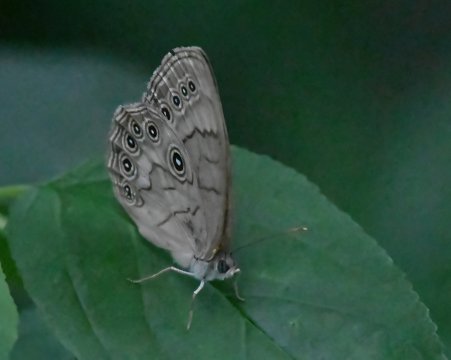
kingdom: Animalia
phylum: Arthropoda
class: Insecta
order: Lepidoptera
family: Nymphalidae
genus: Lethe
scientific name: Lethe eurydice
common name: Eyed Brown
